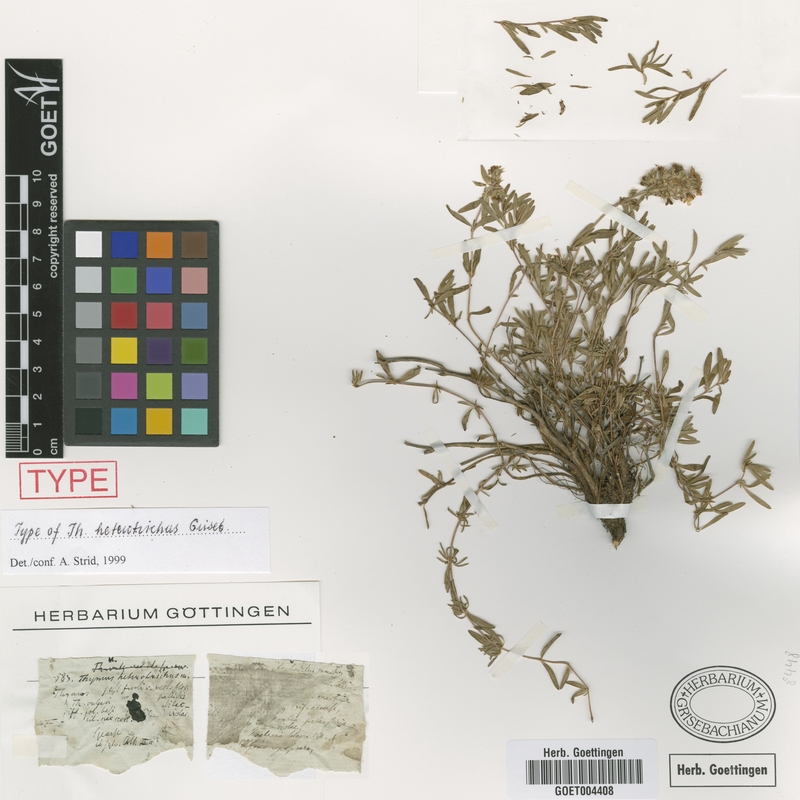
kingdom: Plantae
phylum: Tracheophyta
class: Magnoliopsida
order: Lamiales
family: Lamiaceae
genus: Thymus
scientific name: Thymus sibthorpii
